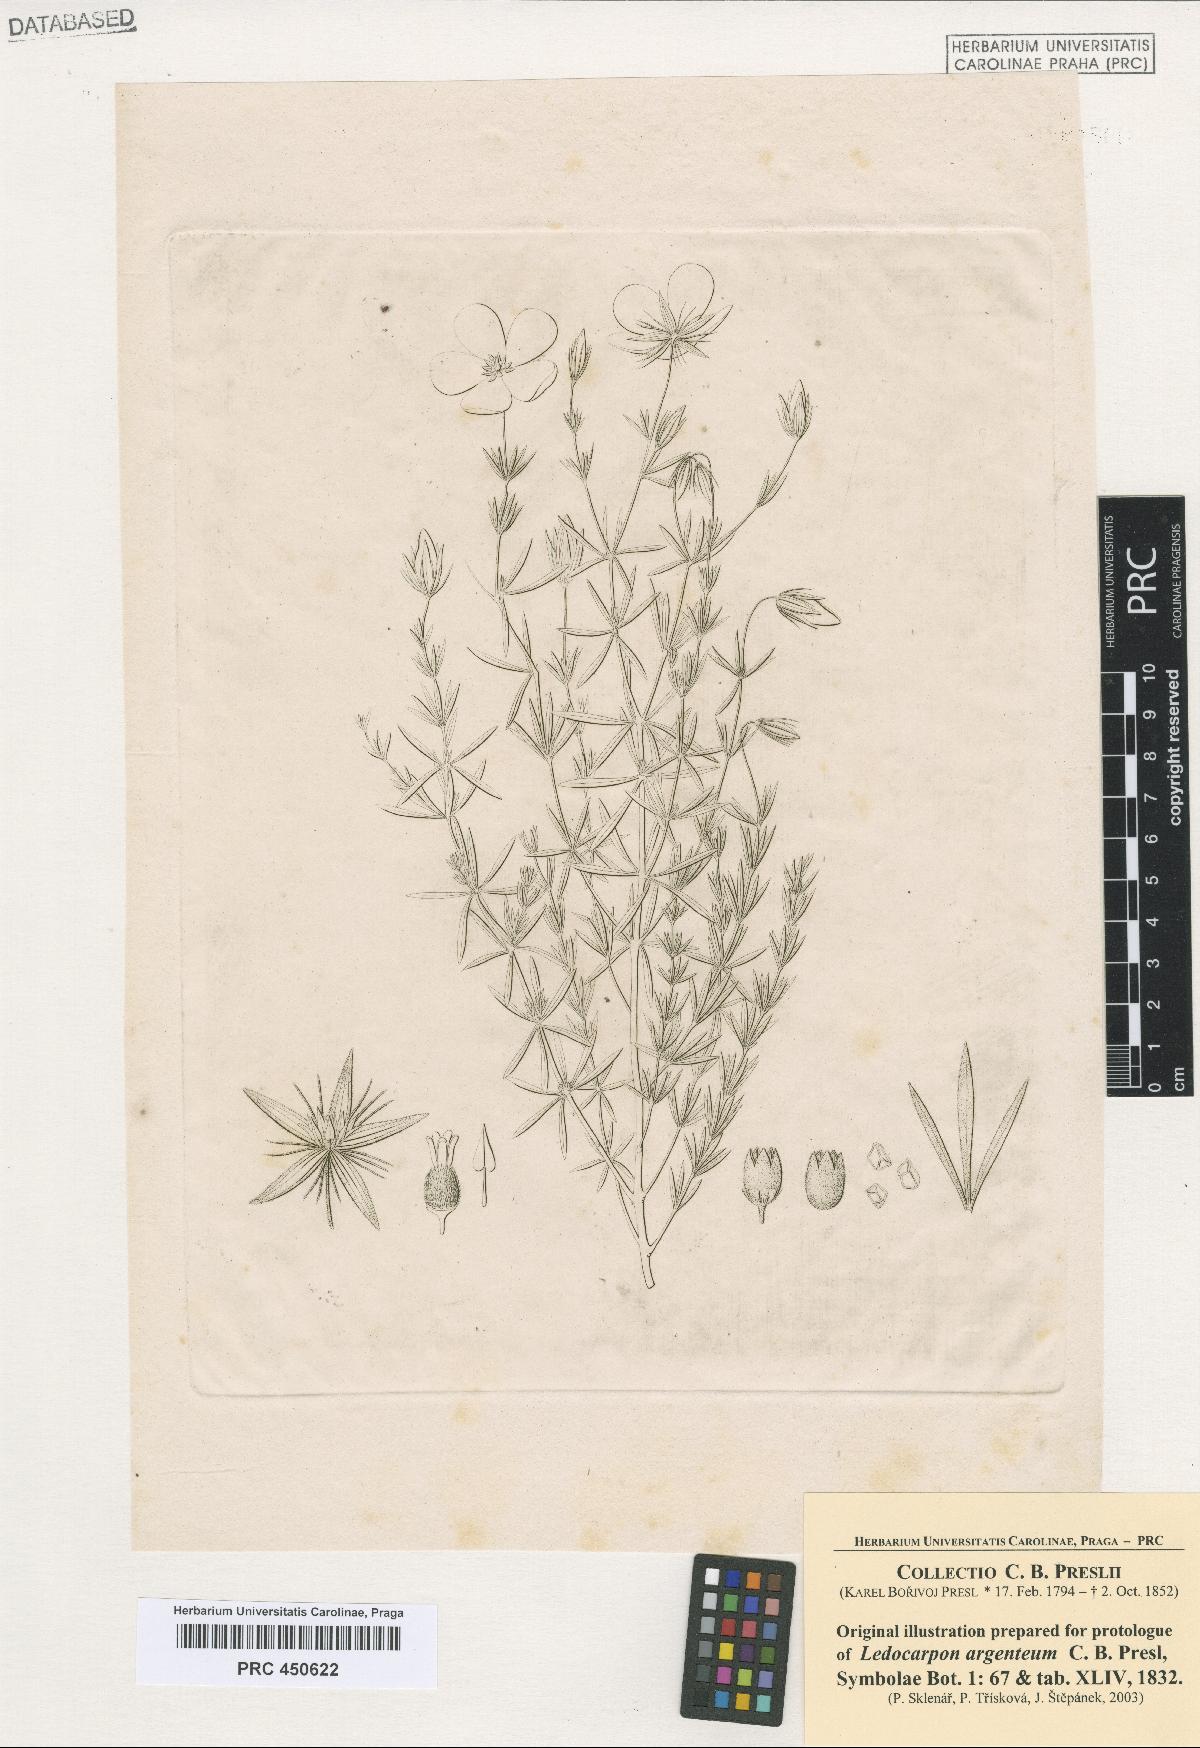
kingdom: Plantae
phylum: Tracheophyta
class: Magnoliopsida
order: Geraniales
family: Vivianiaceae
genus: Balbisia
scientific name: Balbisia verticillata
